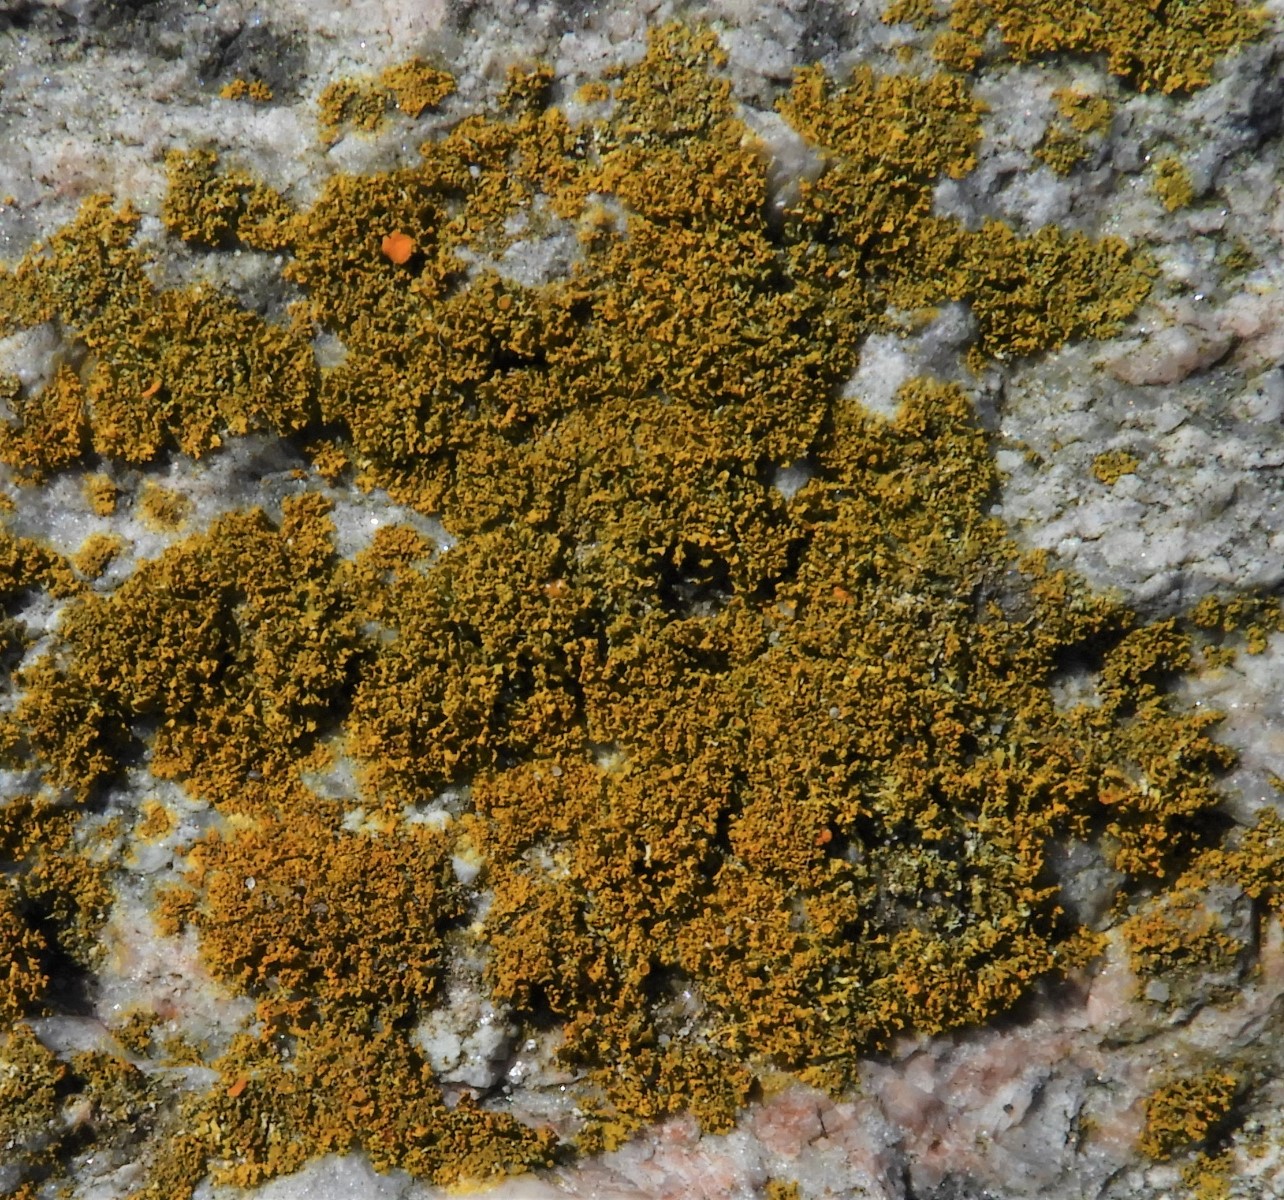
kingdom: Fungi
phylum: Ascomycota
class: Lecanoromycetes
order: Teloschistales
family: Teloschistaceae
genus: Polycauliona
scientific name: Polycauliona candelaria
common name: tue-orangelav
